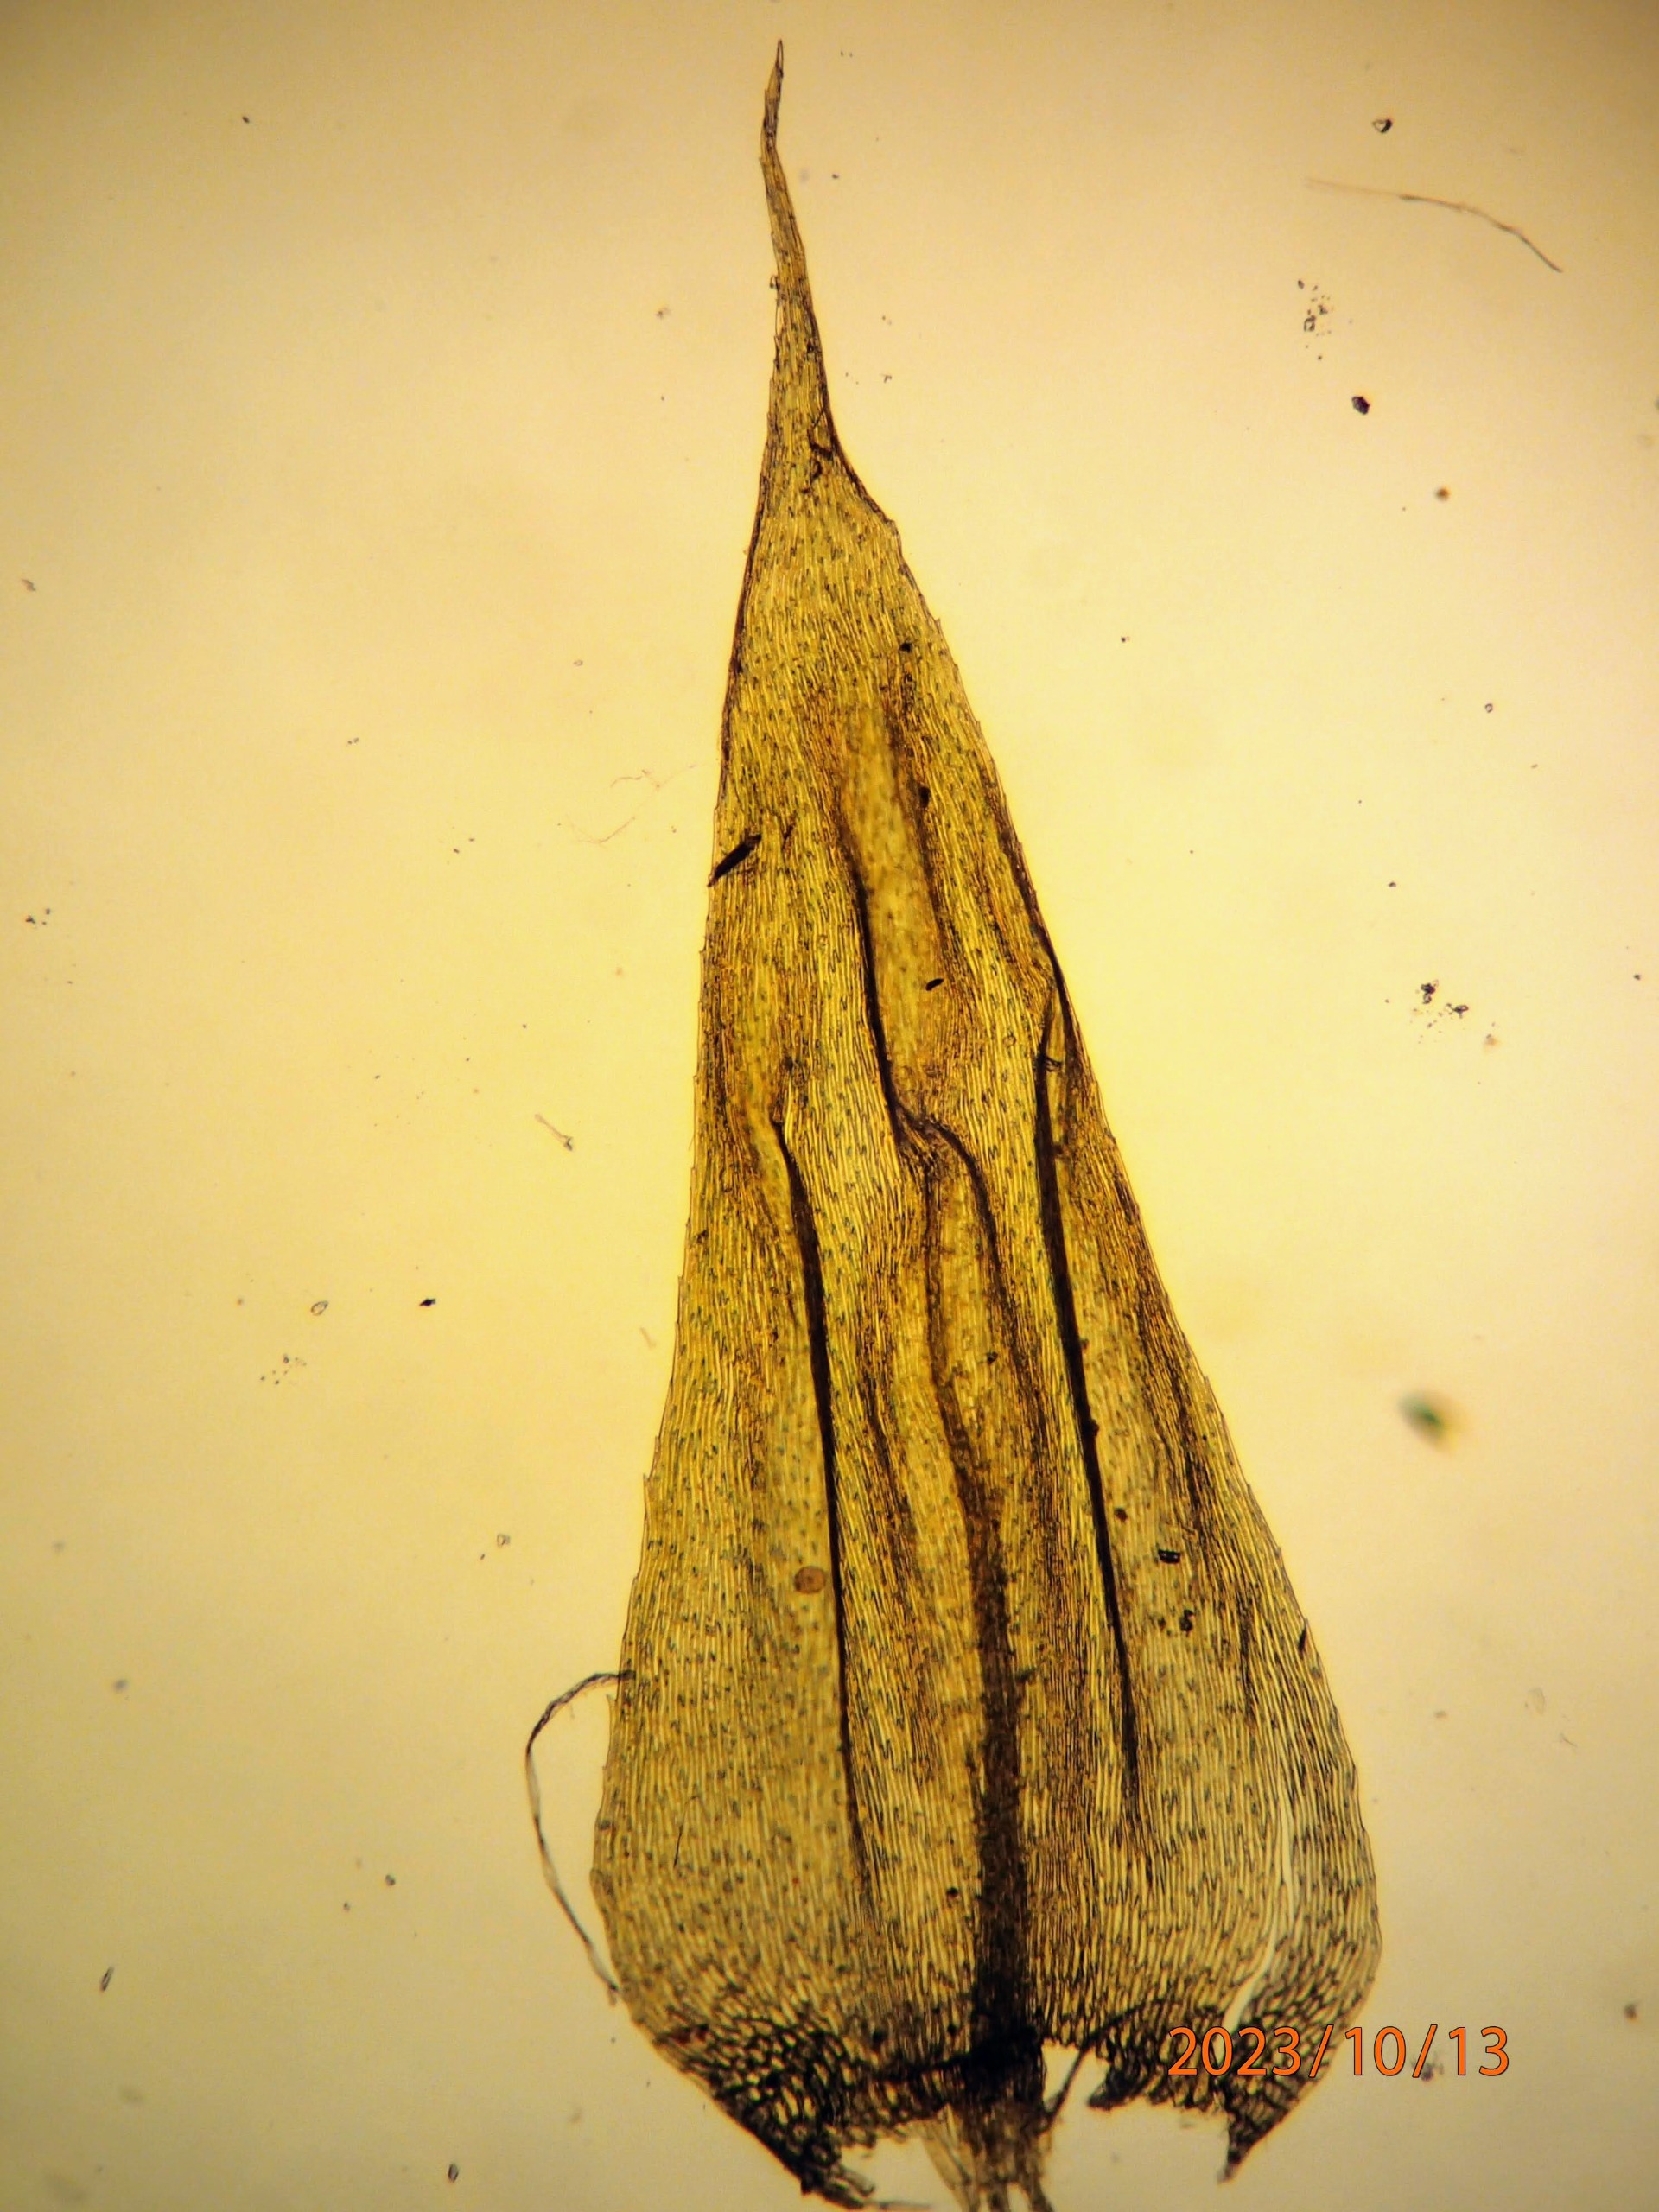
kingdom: Plantae
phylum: Bryophyta
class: Bryopsida
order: Hypnales
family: Brachytheciaceae
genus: Brachythecium
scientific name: Brachythecium salebrosum
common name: Skov-kortkapsel
